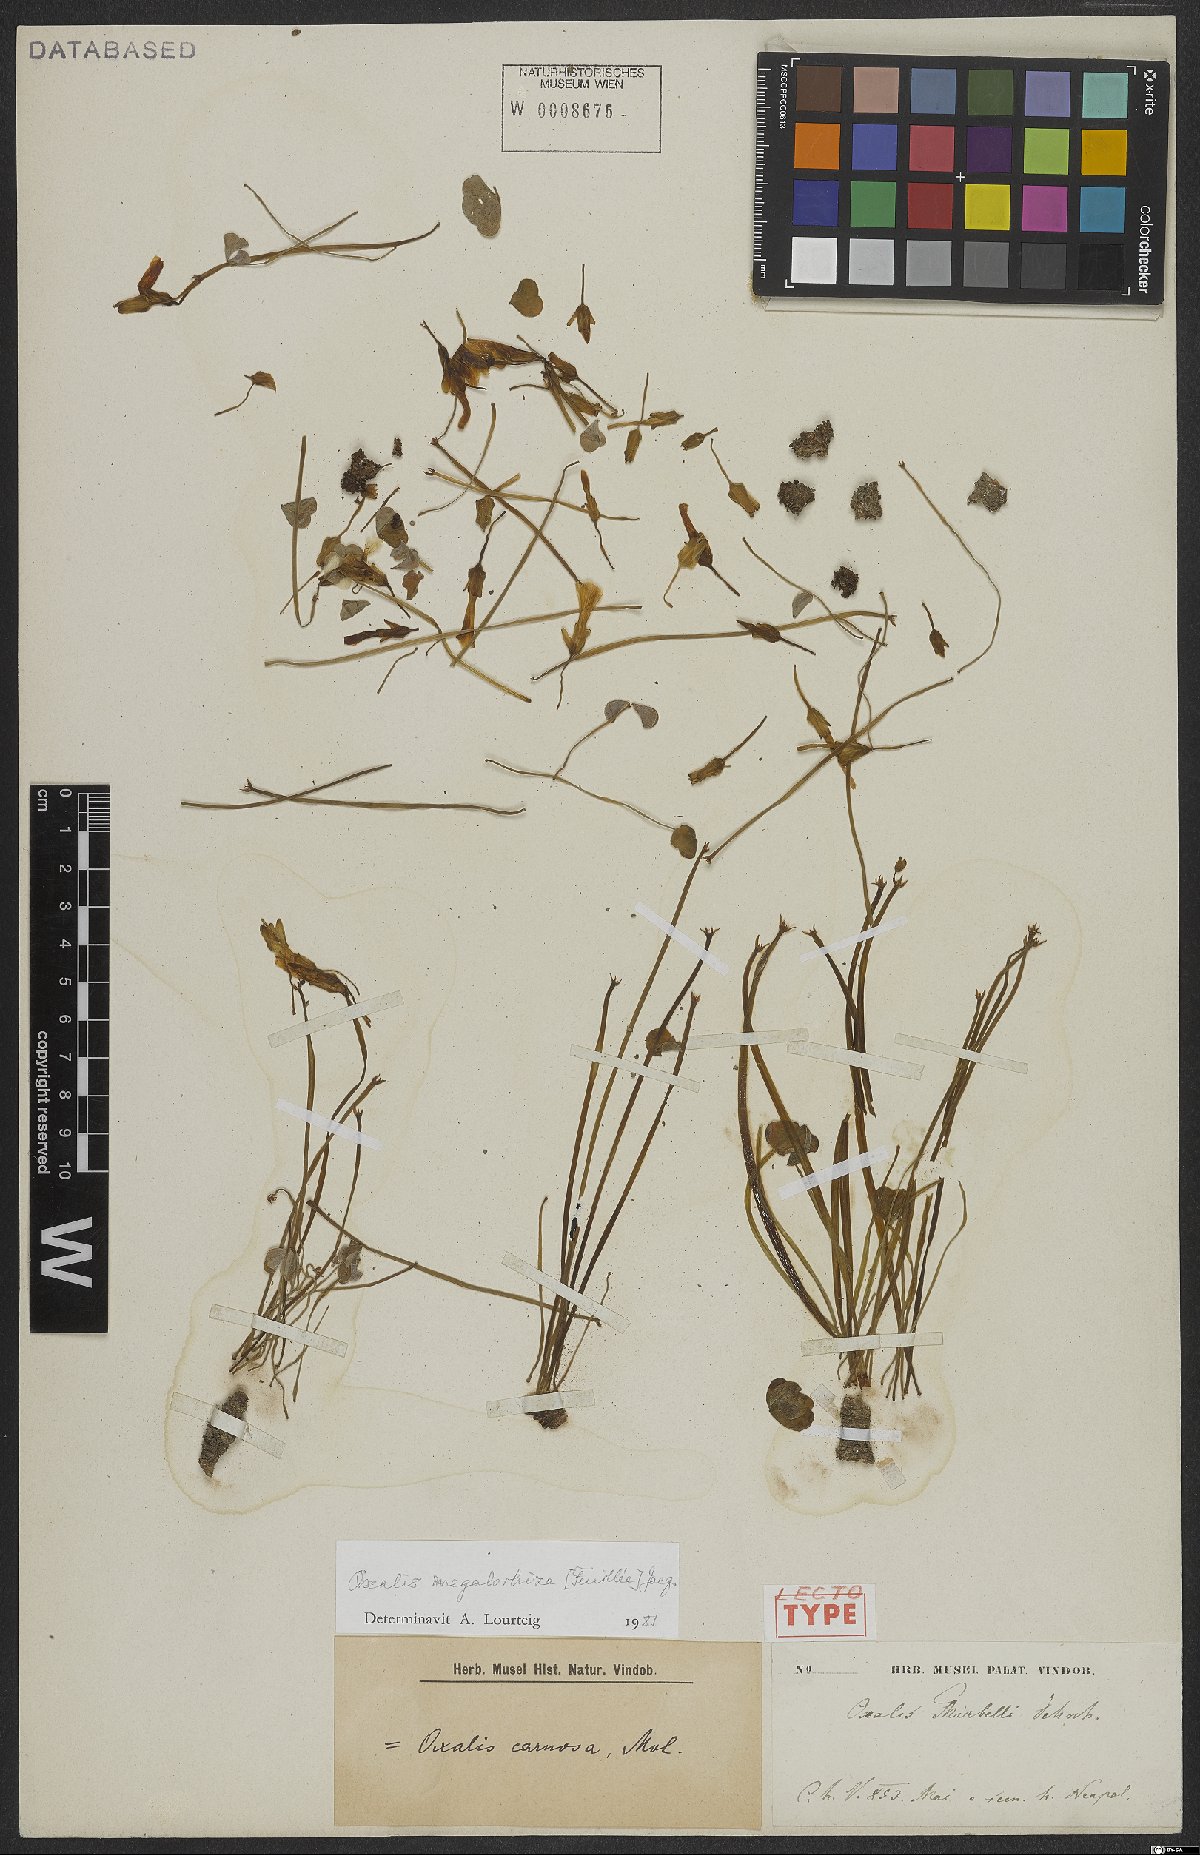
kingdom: Plantae
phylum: Tracheophyta
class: Magnoliopsida
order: Oxalidales
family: Oxalidaceae
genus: Oxalis
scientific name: Oxalis megalorrhiza
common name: Fleshy yellow-sorrel
